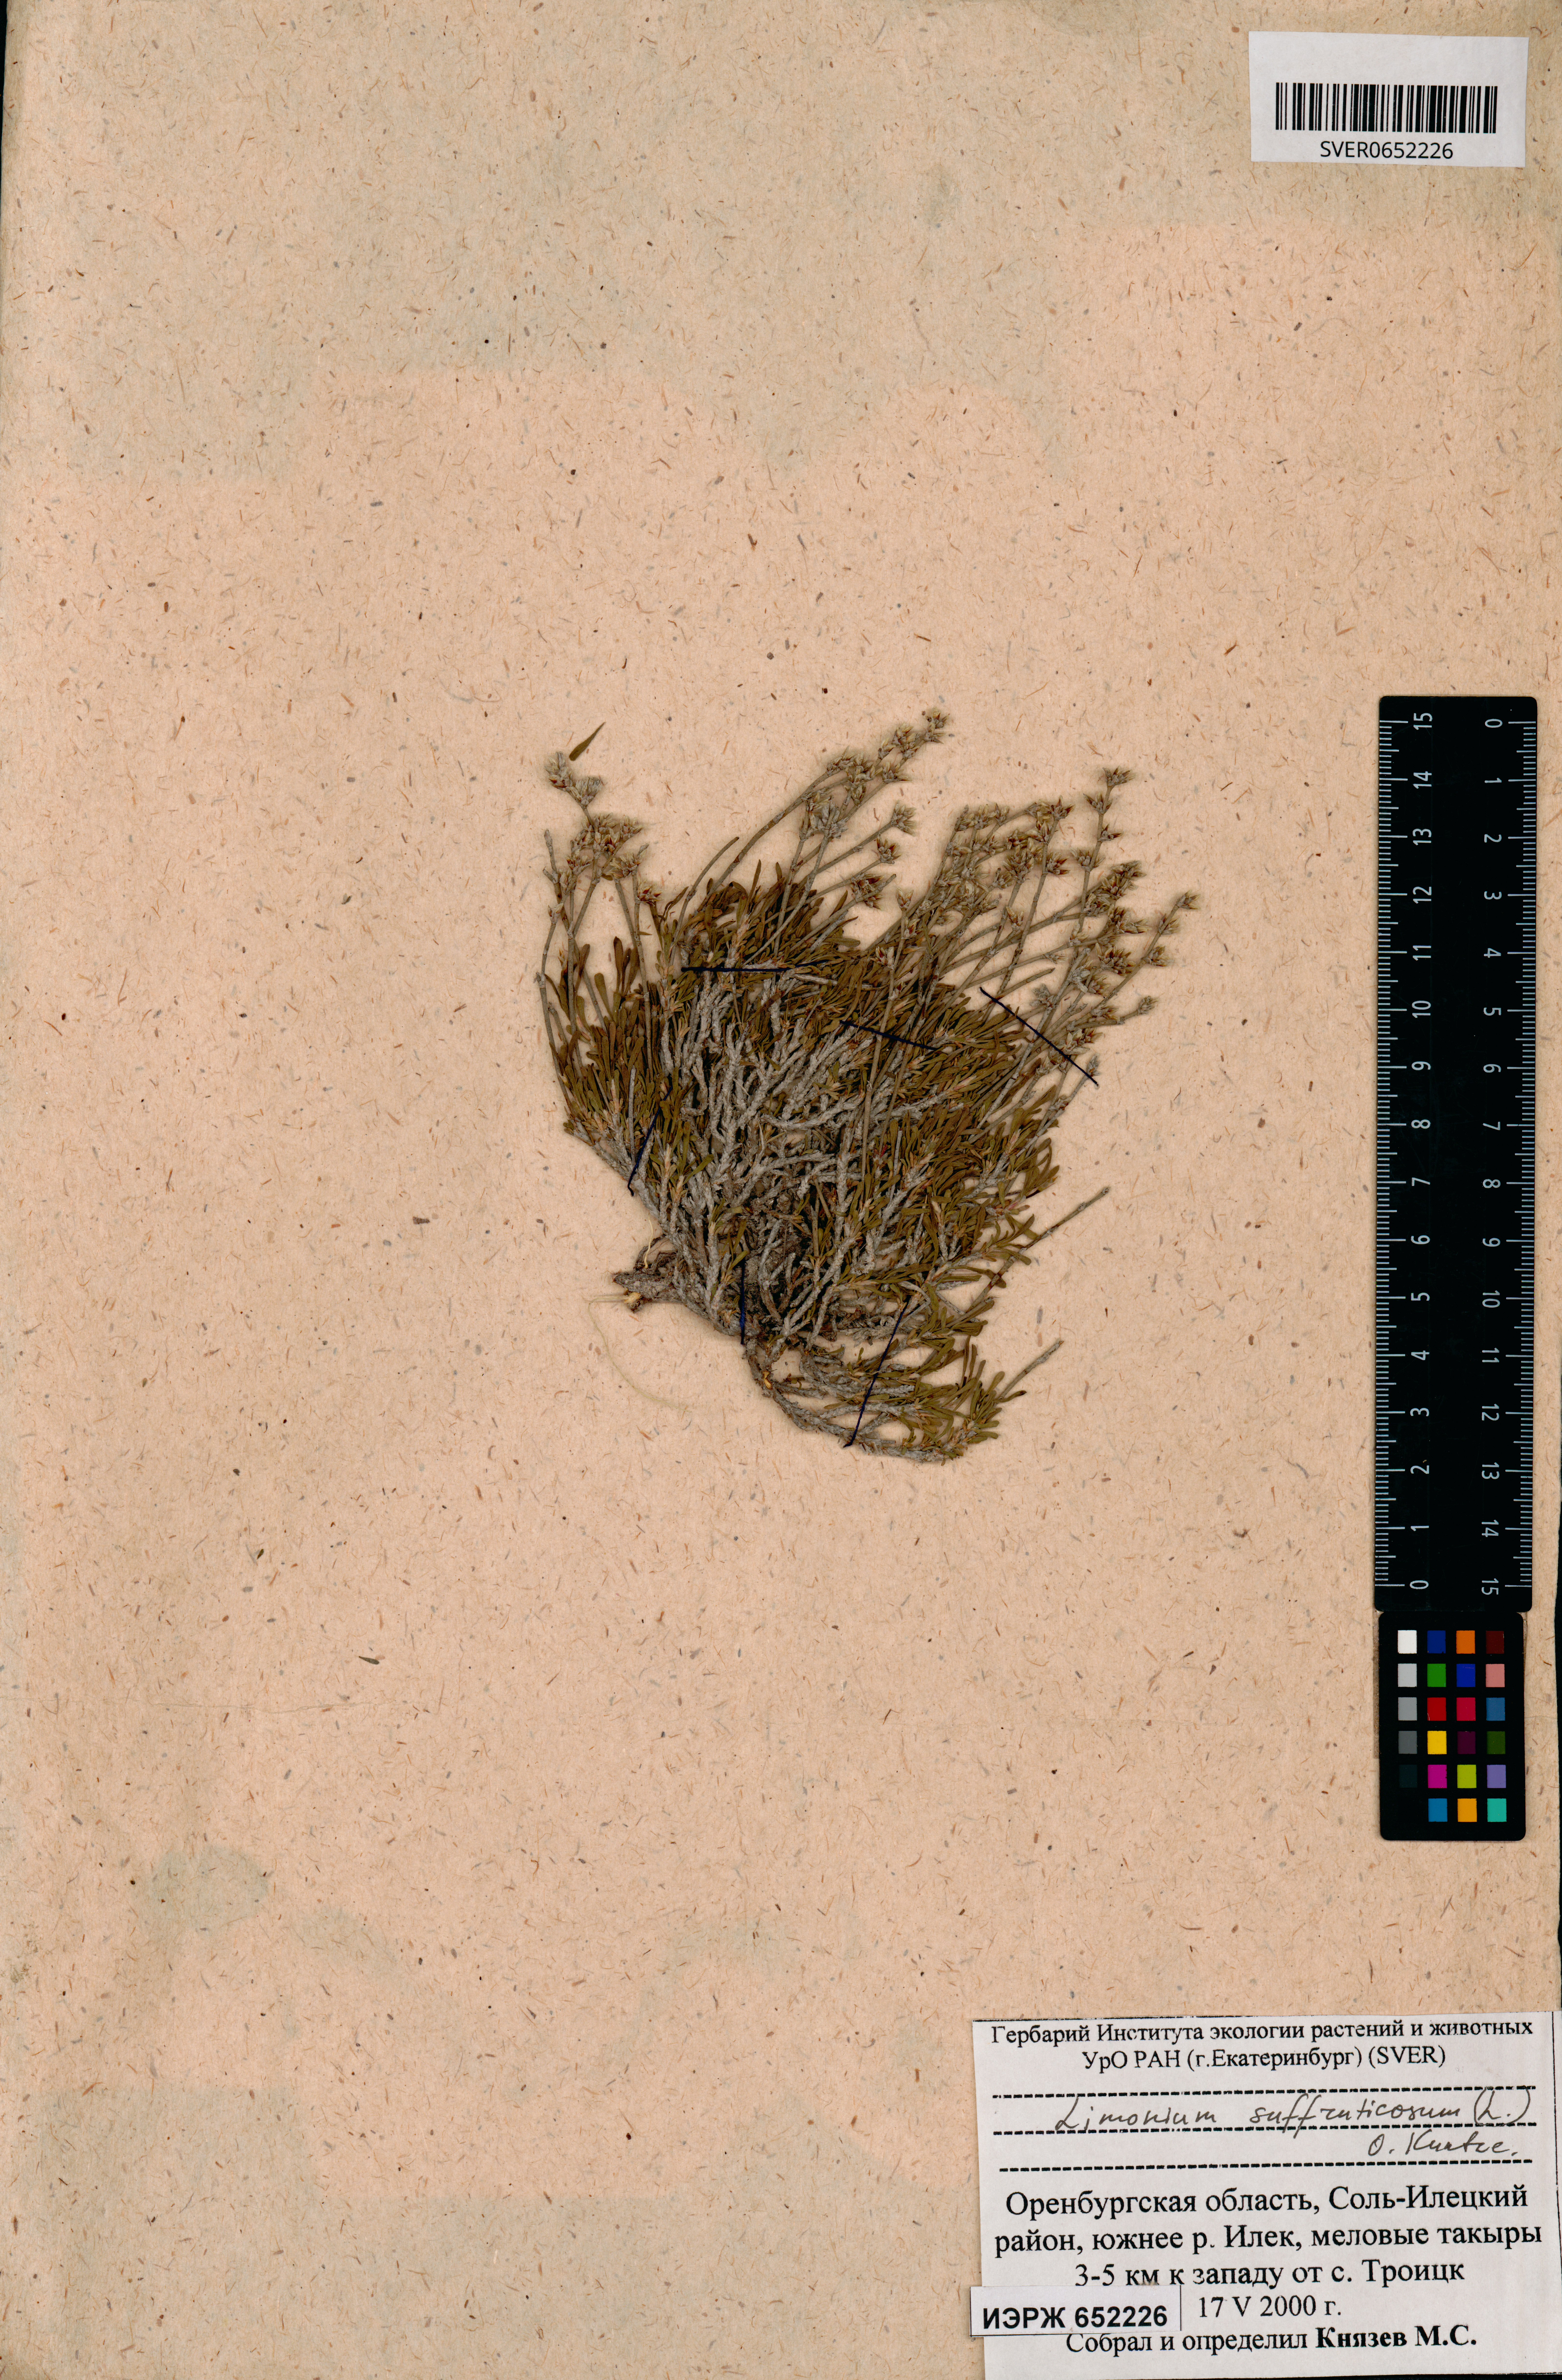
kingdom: Plantae
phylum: Tracheophyta
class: Magnoliopsida
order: Caryophyllales
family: Plumbaginaceae
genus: Limonium
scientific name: Limonium suffruticosum
